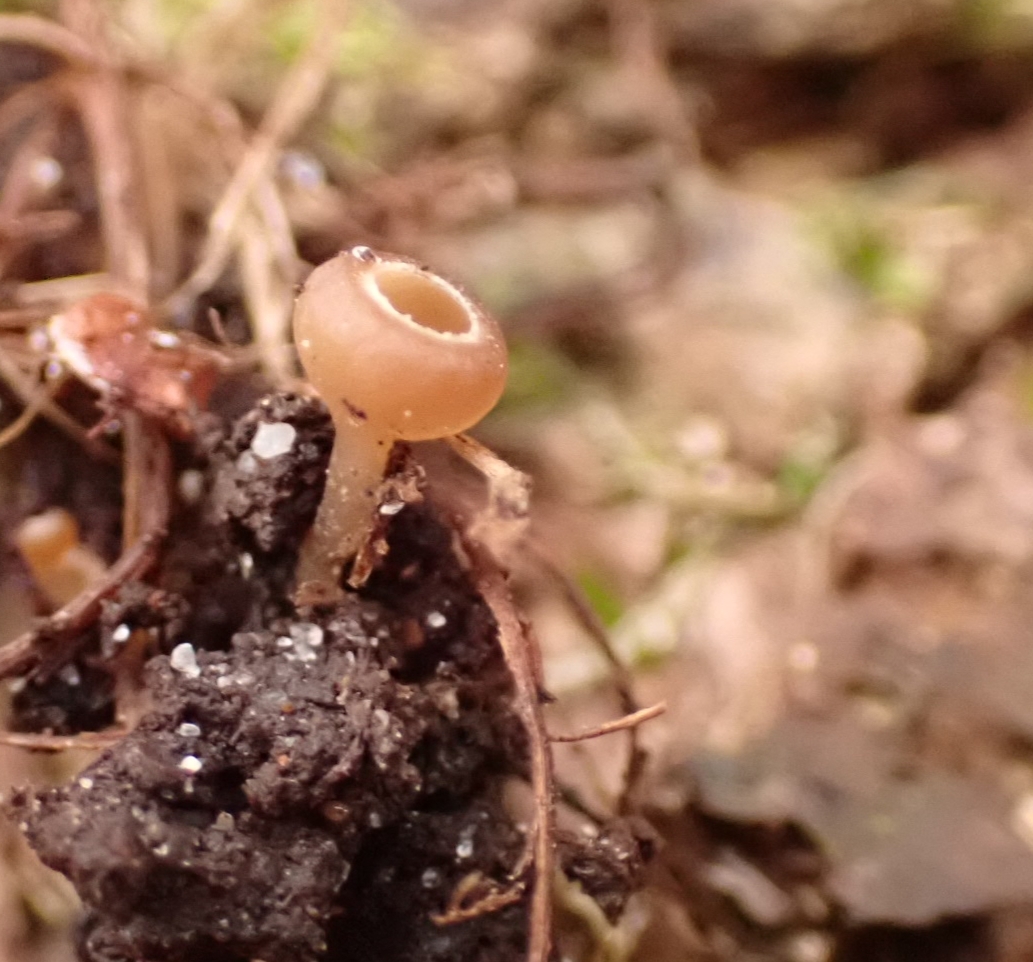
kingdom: Fungi
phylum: Ascomycota
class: Leotiomycetes
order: Helotiales
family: Sclerotiniaceae
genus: Ciboria
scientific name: Ciboria amentacea
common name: ellerakle-knoldskive
